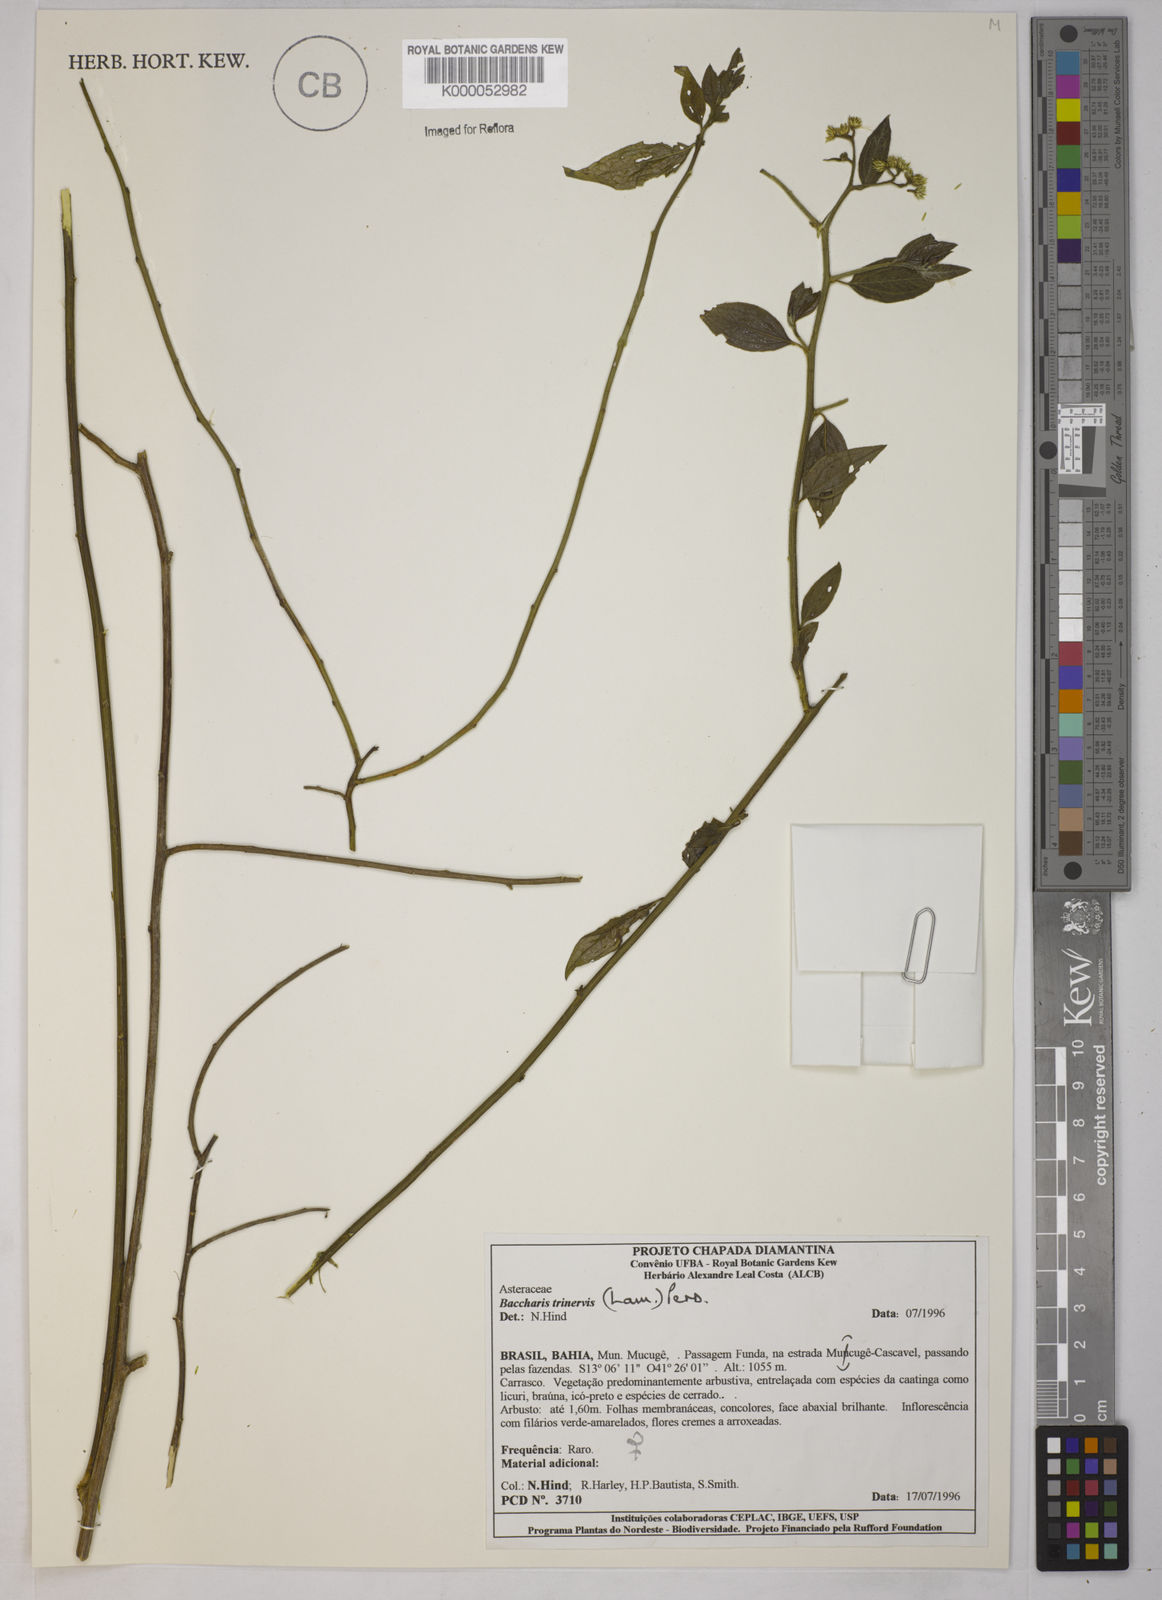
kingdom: Plantae
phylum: Tracheophyta
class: Magnoliopsida
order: Asterales
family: Asteraceae
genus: Baccharis
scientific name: Baccharis trinervis
